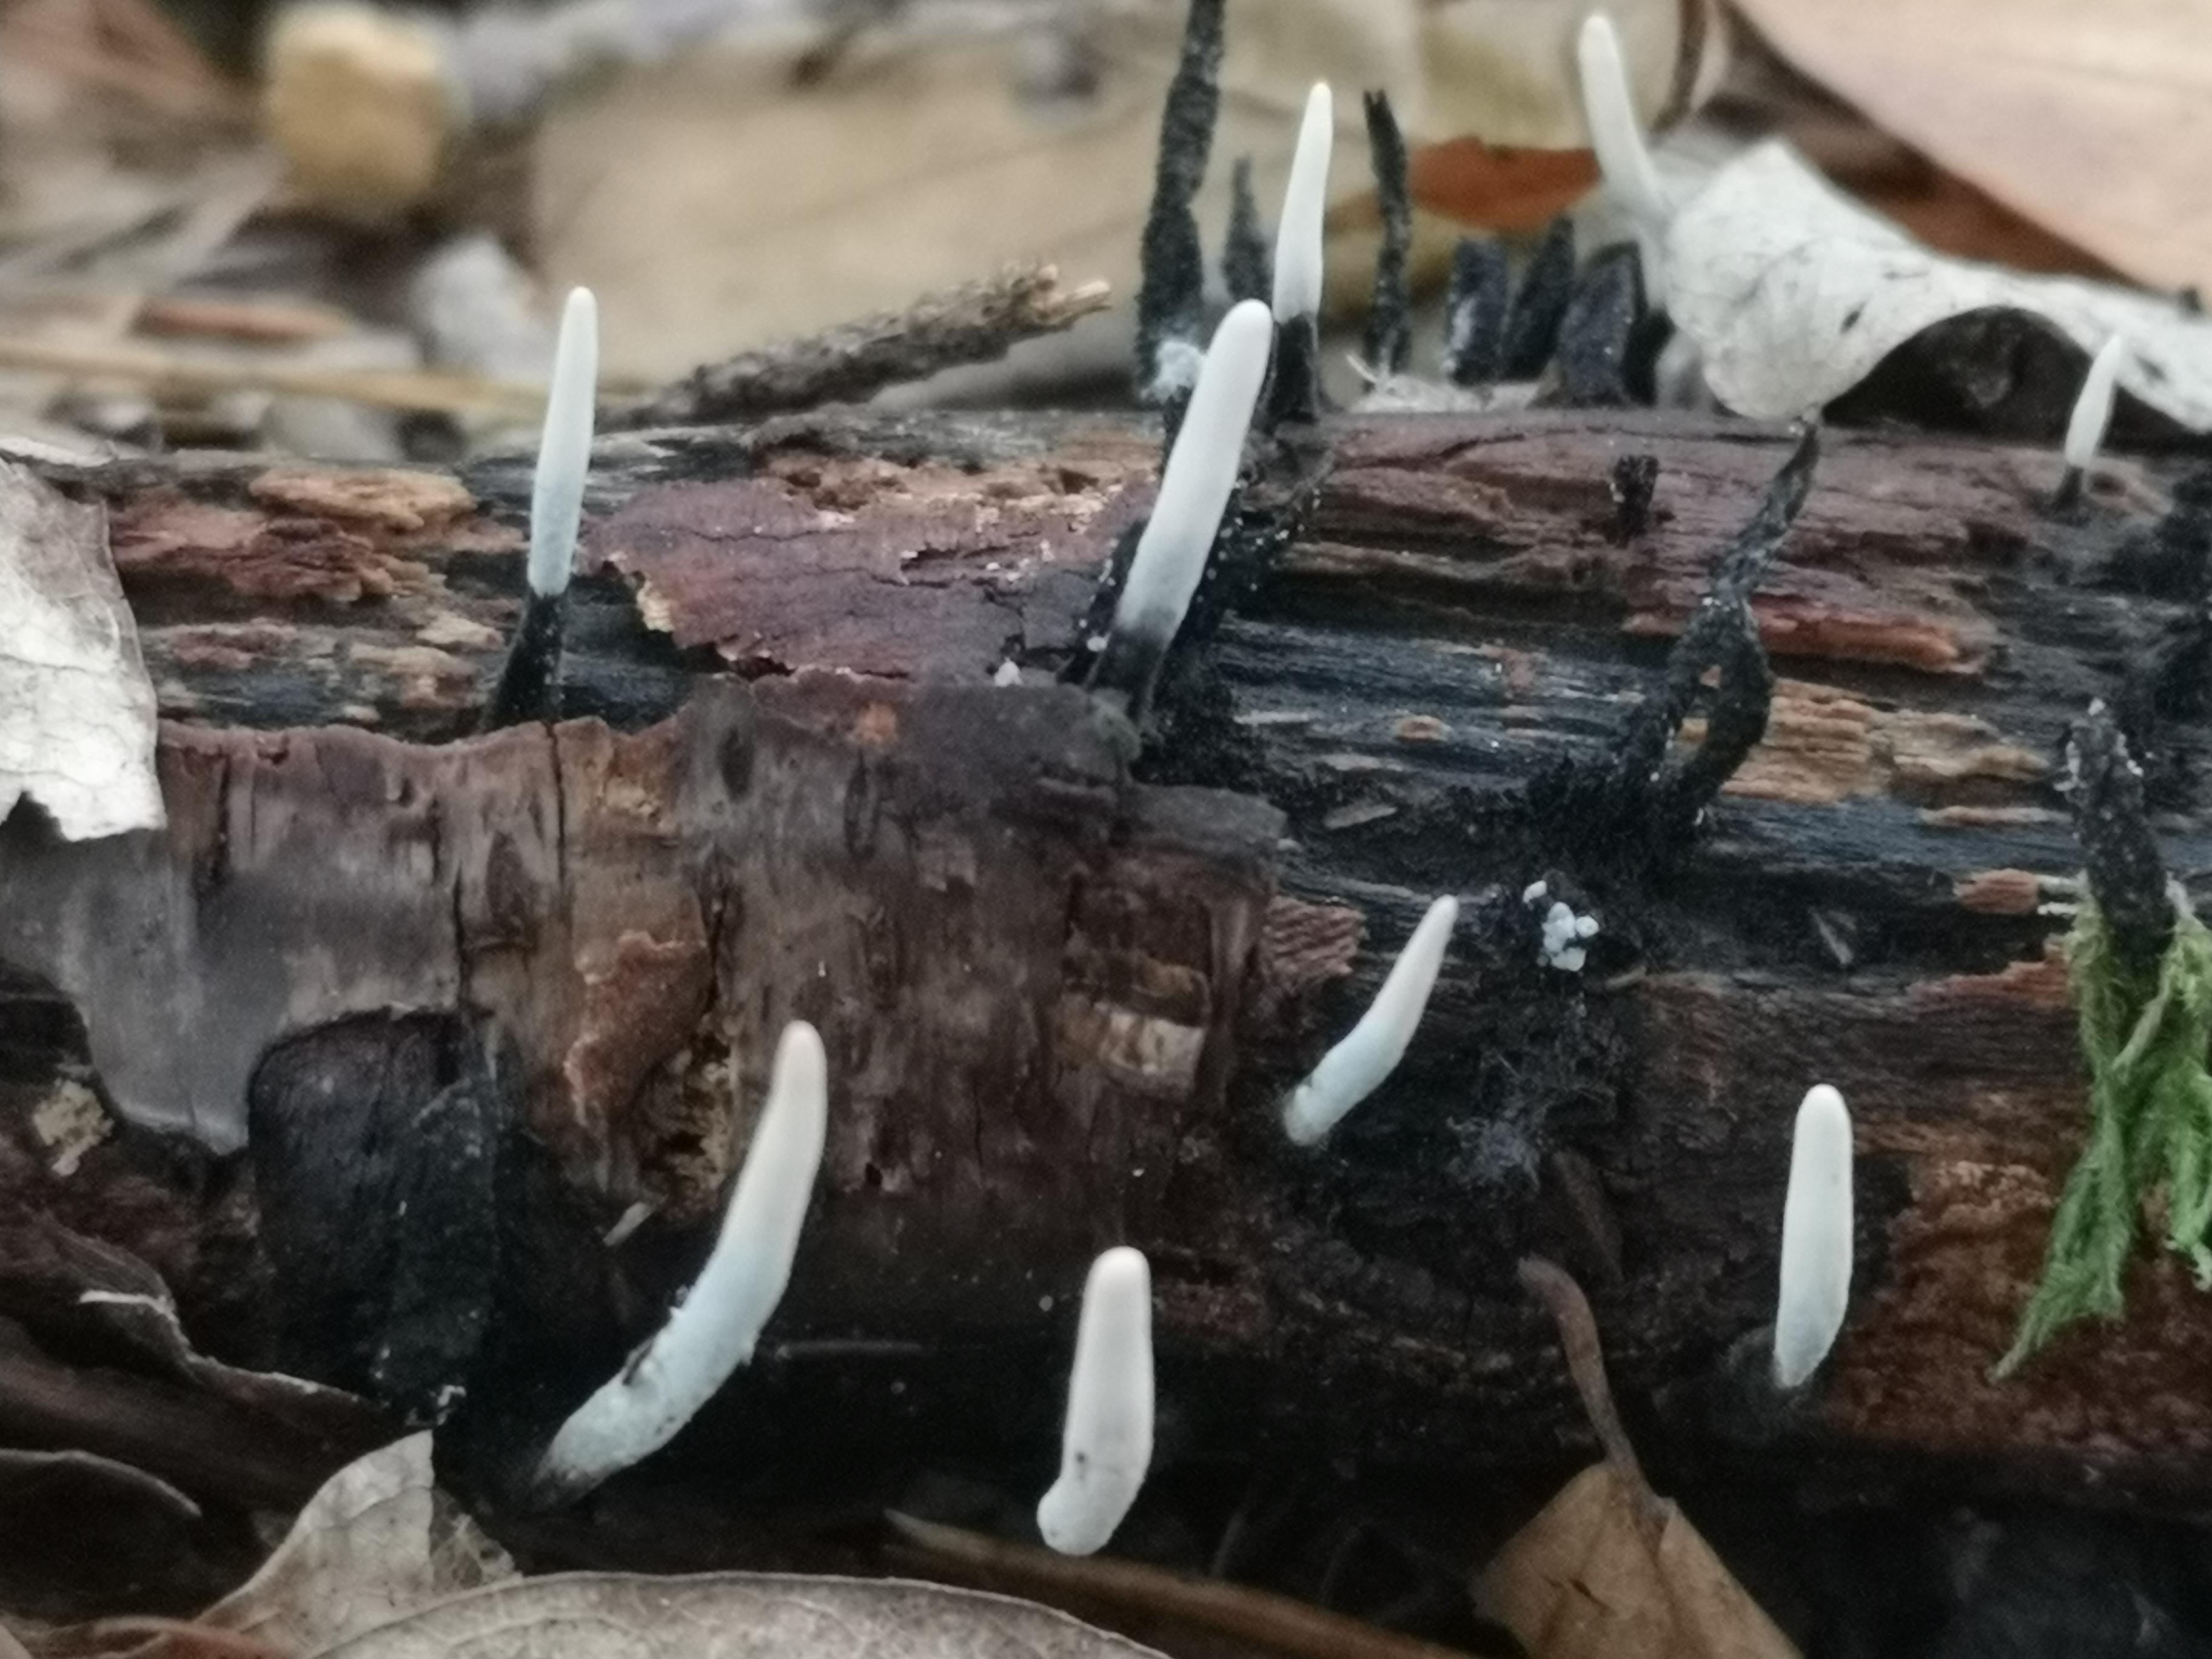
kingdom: Fungi
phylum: Ascomycota
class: Sordariomycetes
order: Xylariales
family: Xylariaceae
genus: Xylaria
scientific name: Xylaria hypoxylon
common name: grenet stødsvamp
